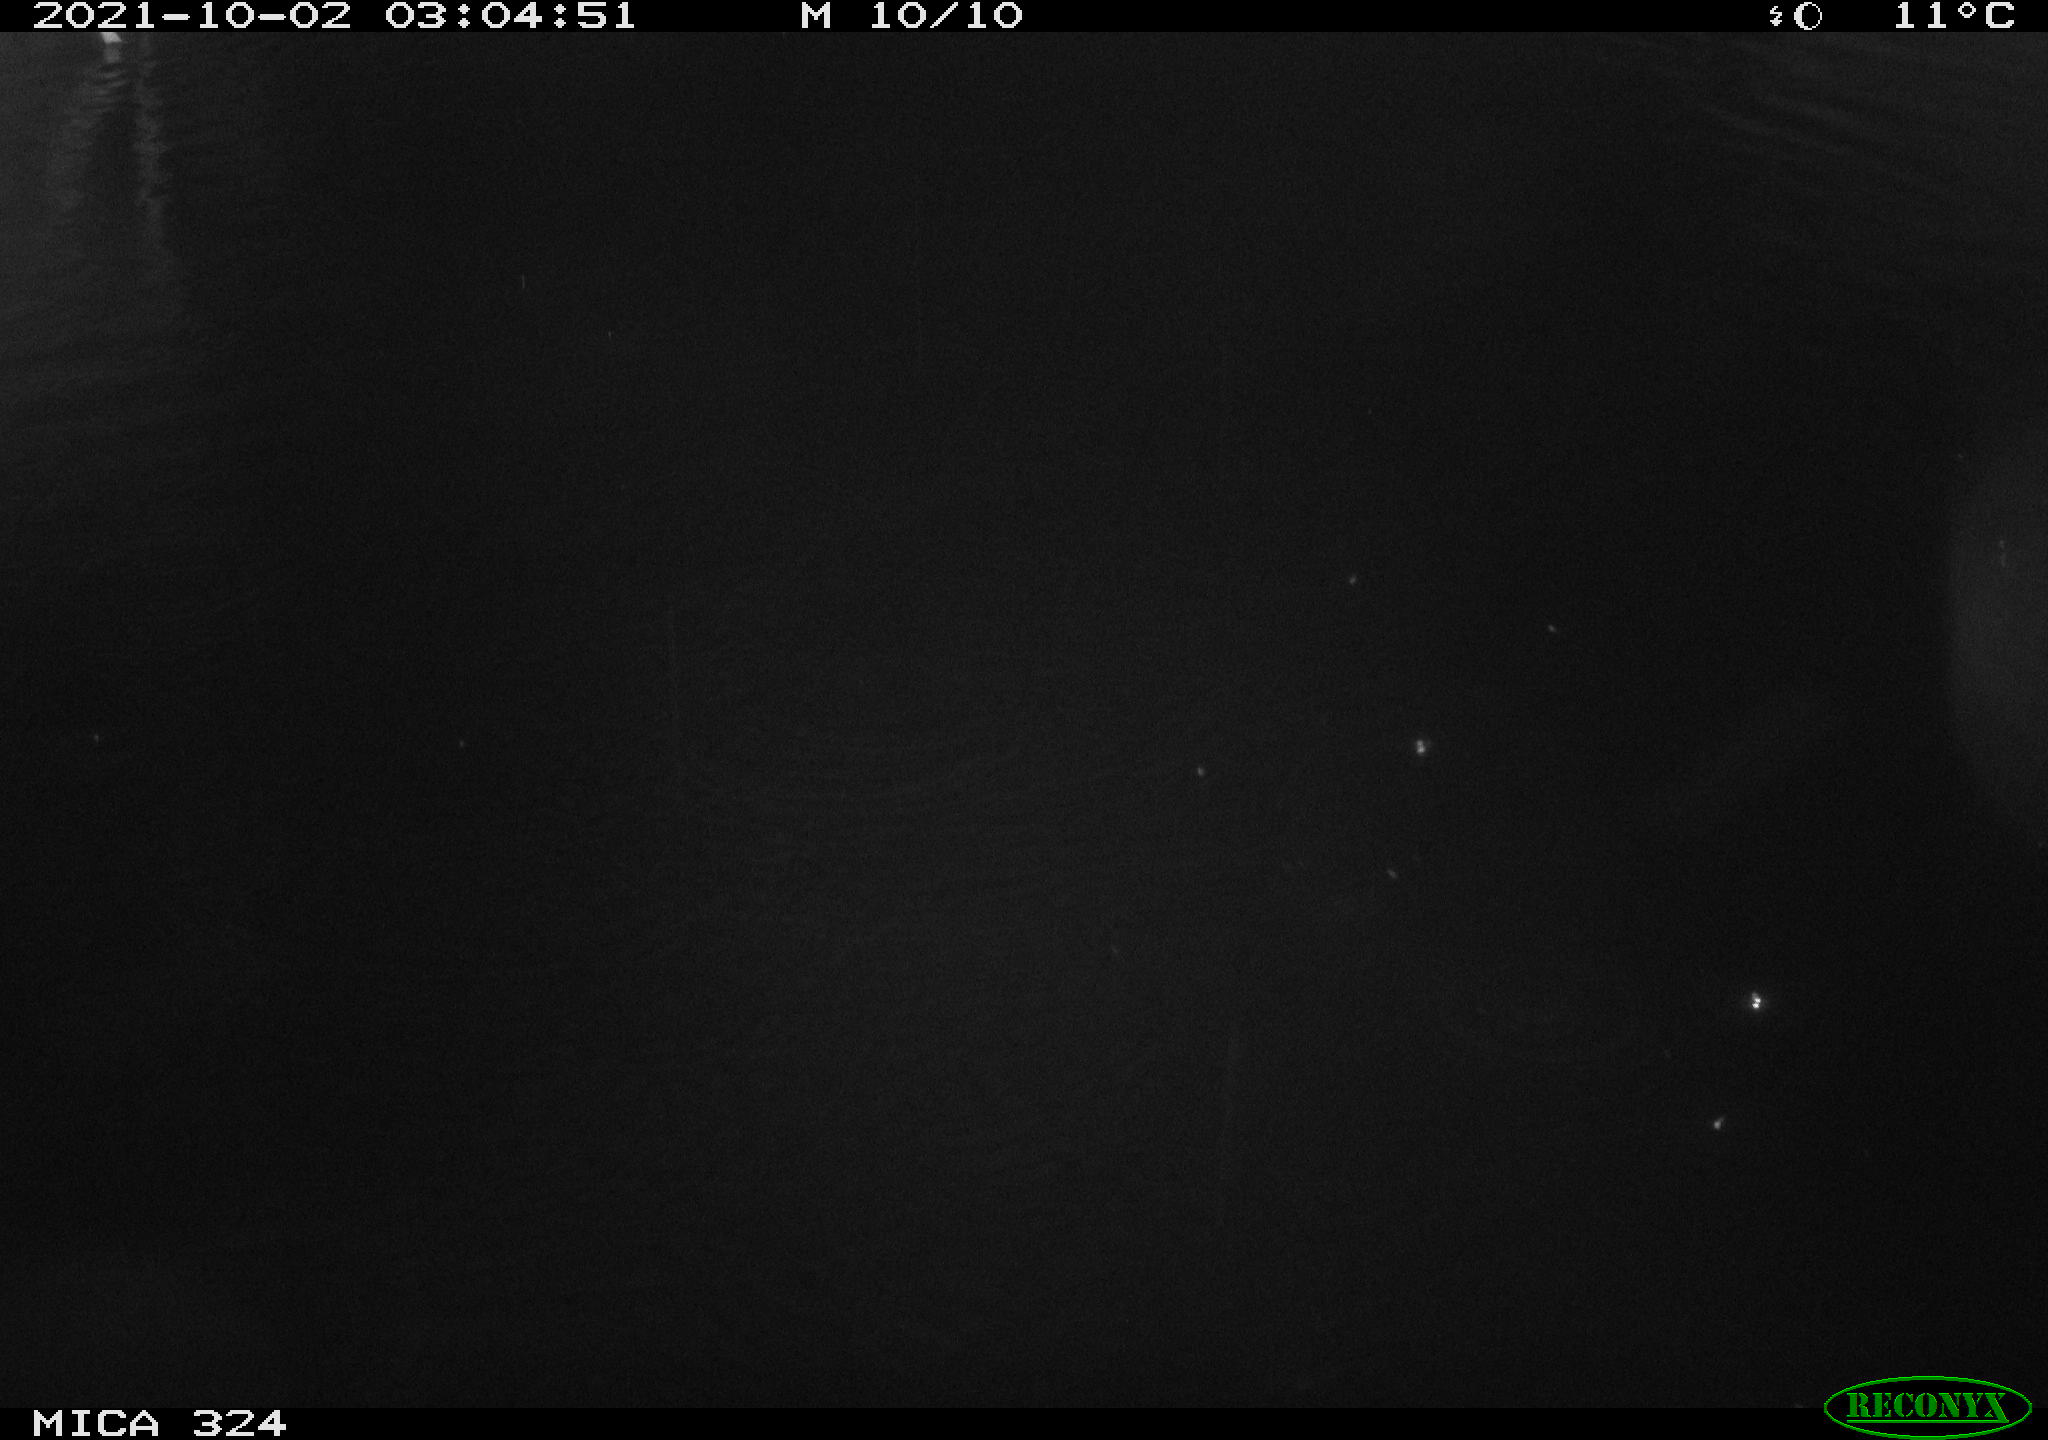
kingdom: Animalia
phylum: Chordata
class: Mammalia
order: Rodentia
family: Cricetidae
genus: Ondatra
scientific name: Ondatra zibethicus
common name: Muskrat
